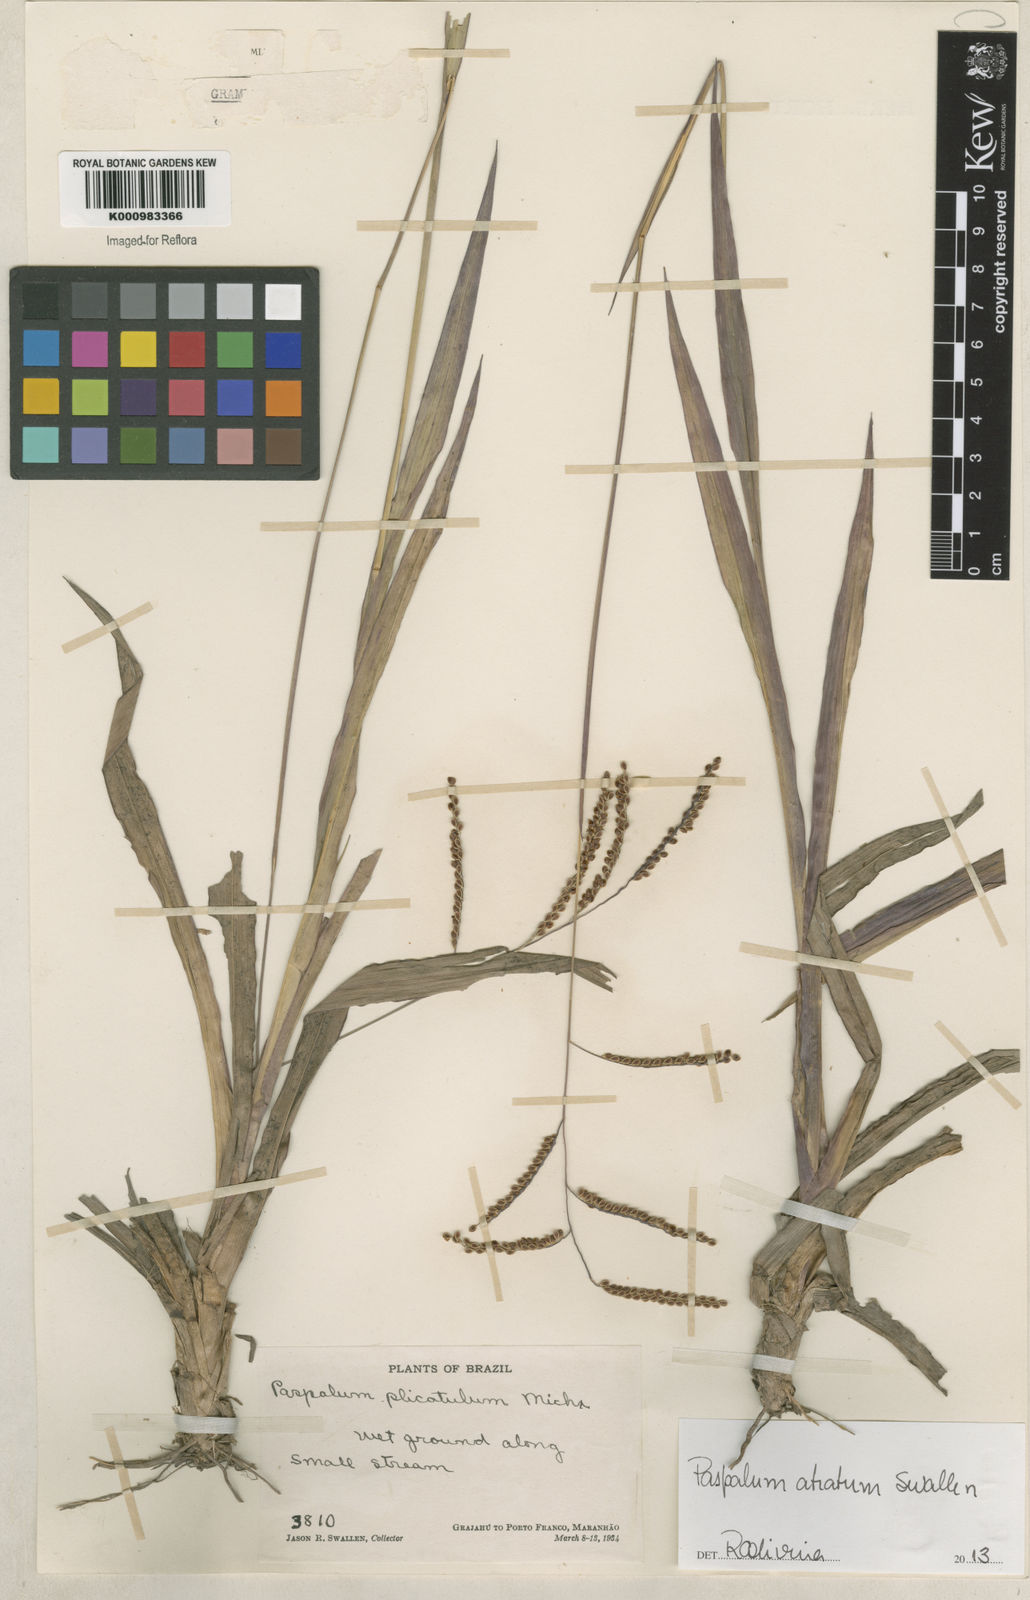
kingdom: Plantae
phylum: Tracheophyta
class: Liliopsida
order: Poales
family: Poaceae
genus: Paspalum
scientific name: Paspalum atratum
